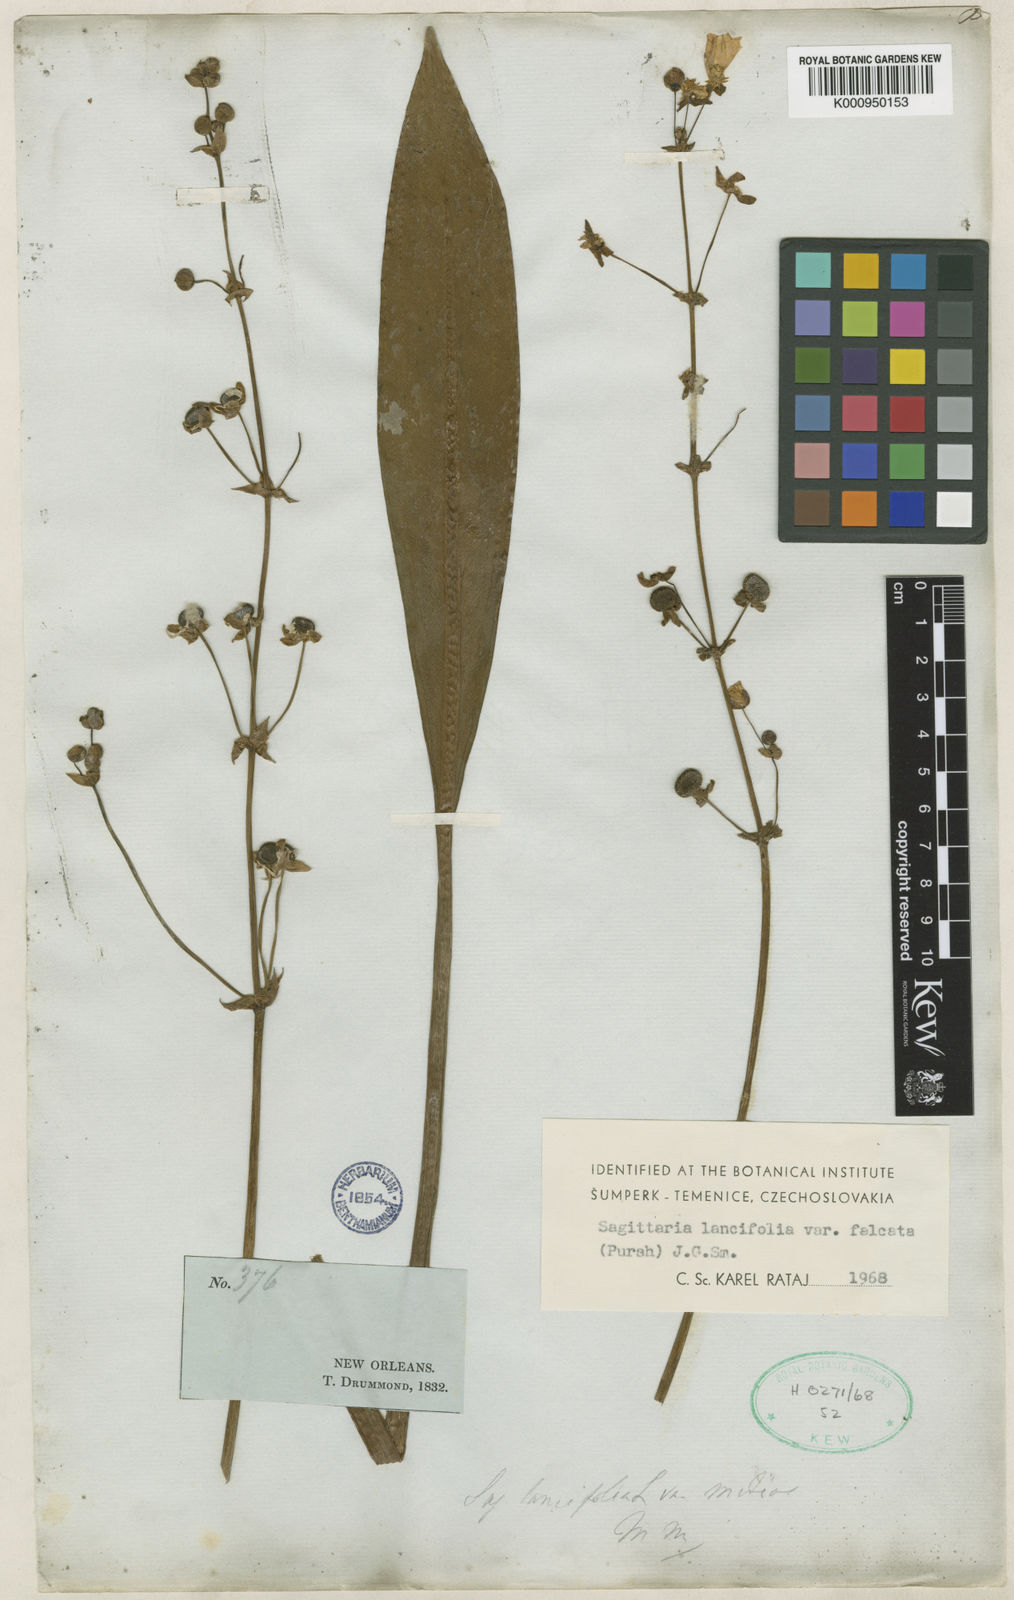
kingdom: Plantae
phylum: Tracheophyta
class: Liliopsida
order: Alismatales
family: Alismataceae
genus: Sagittaria
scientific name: Sagittaria lancifolia
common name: Lance-leaf arrowhead
